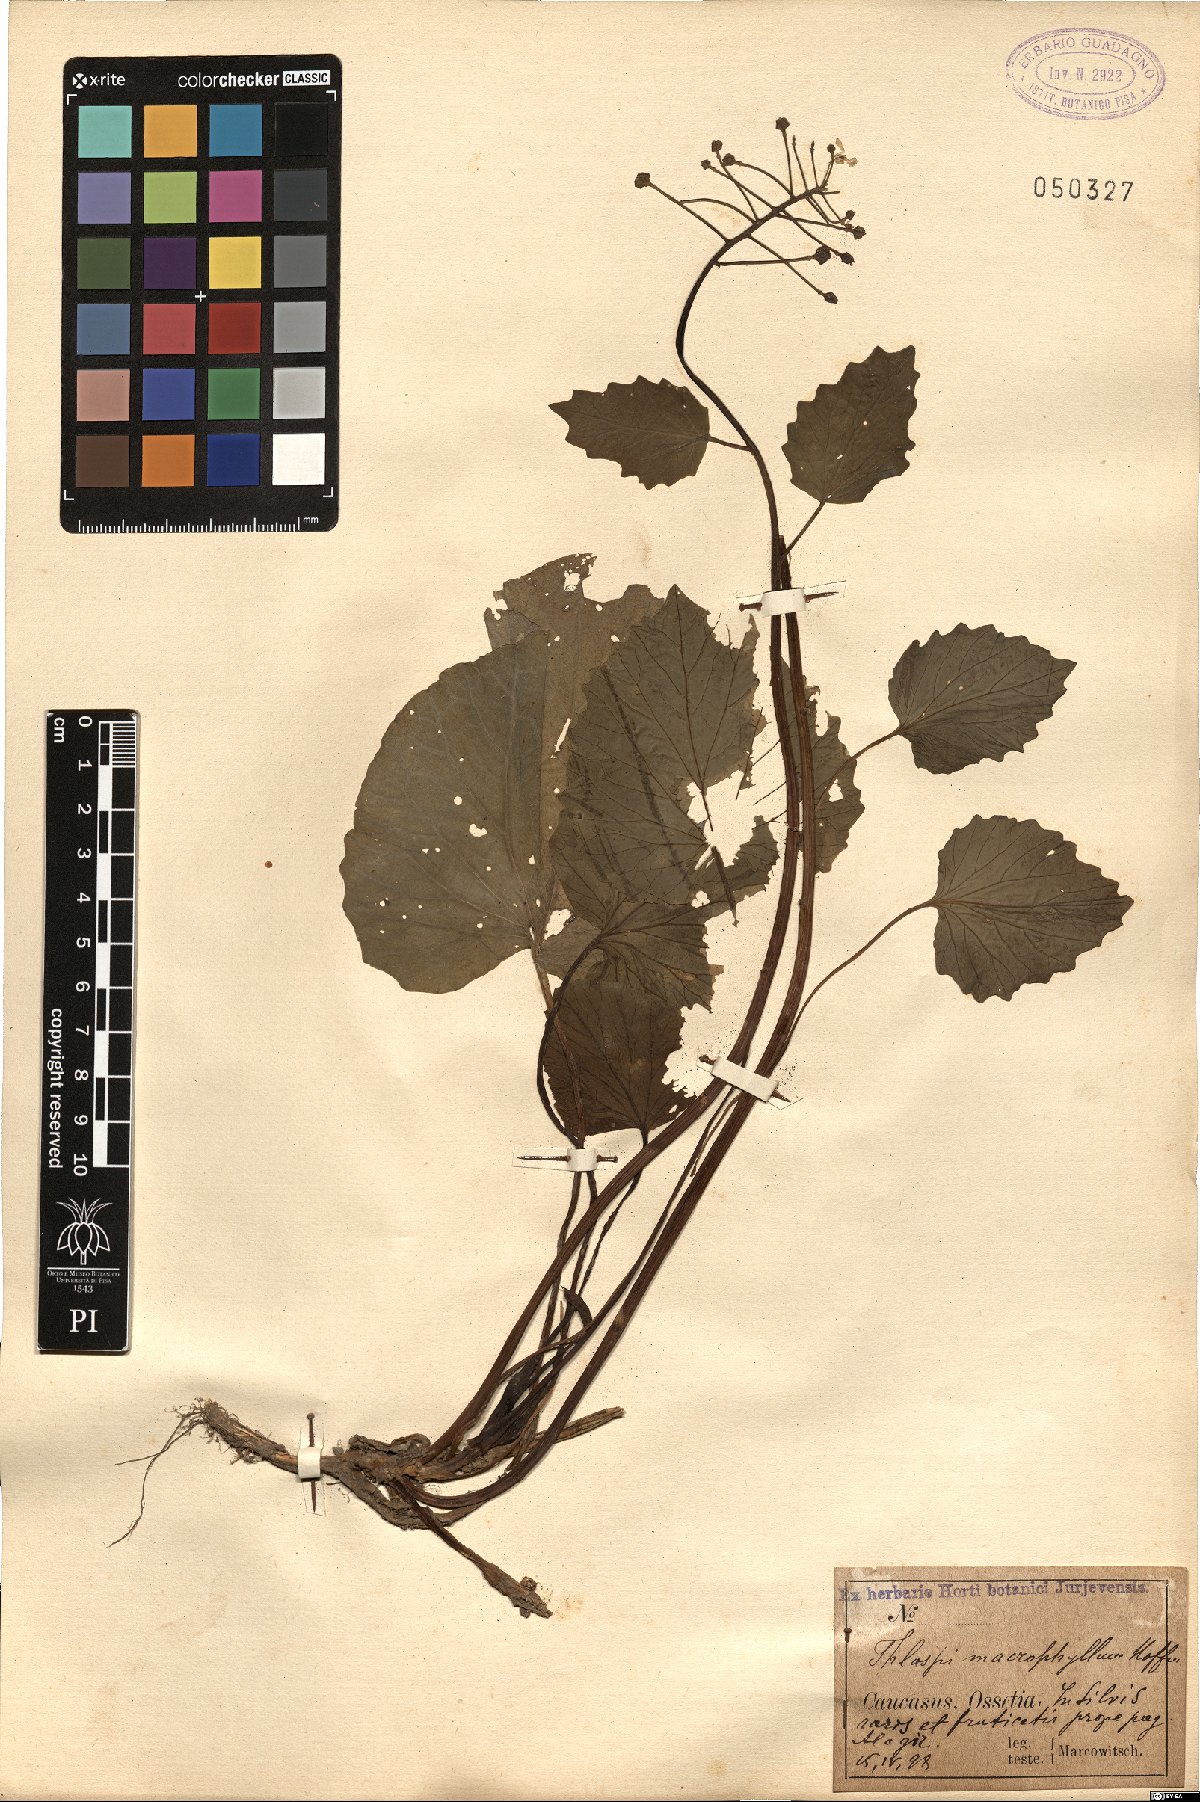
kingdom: Plantae
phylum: Tracheophyta
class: Magnoliopsida
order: Brassicales
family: Brassicaceae
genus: Pachyphragma
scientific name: Pachyphragma macrophyllum
